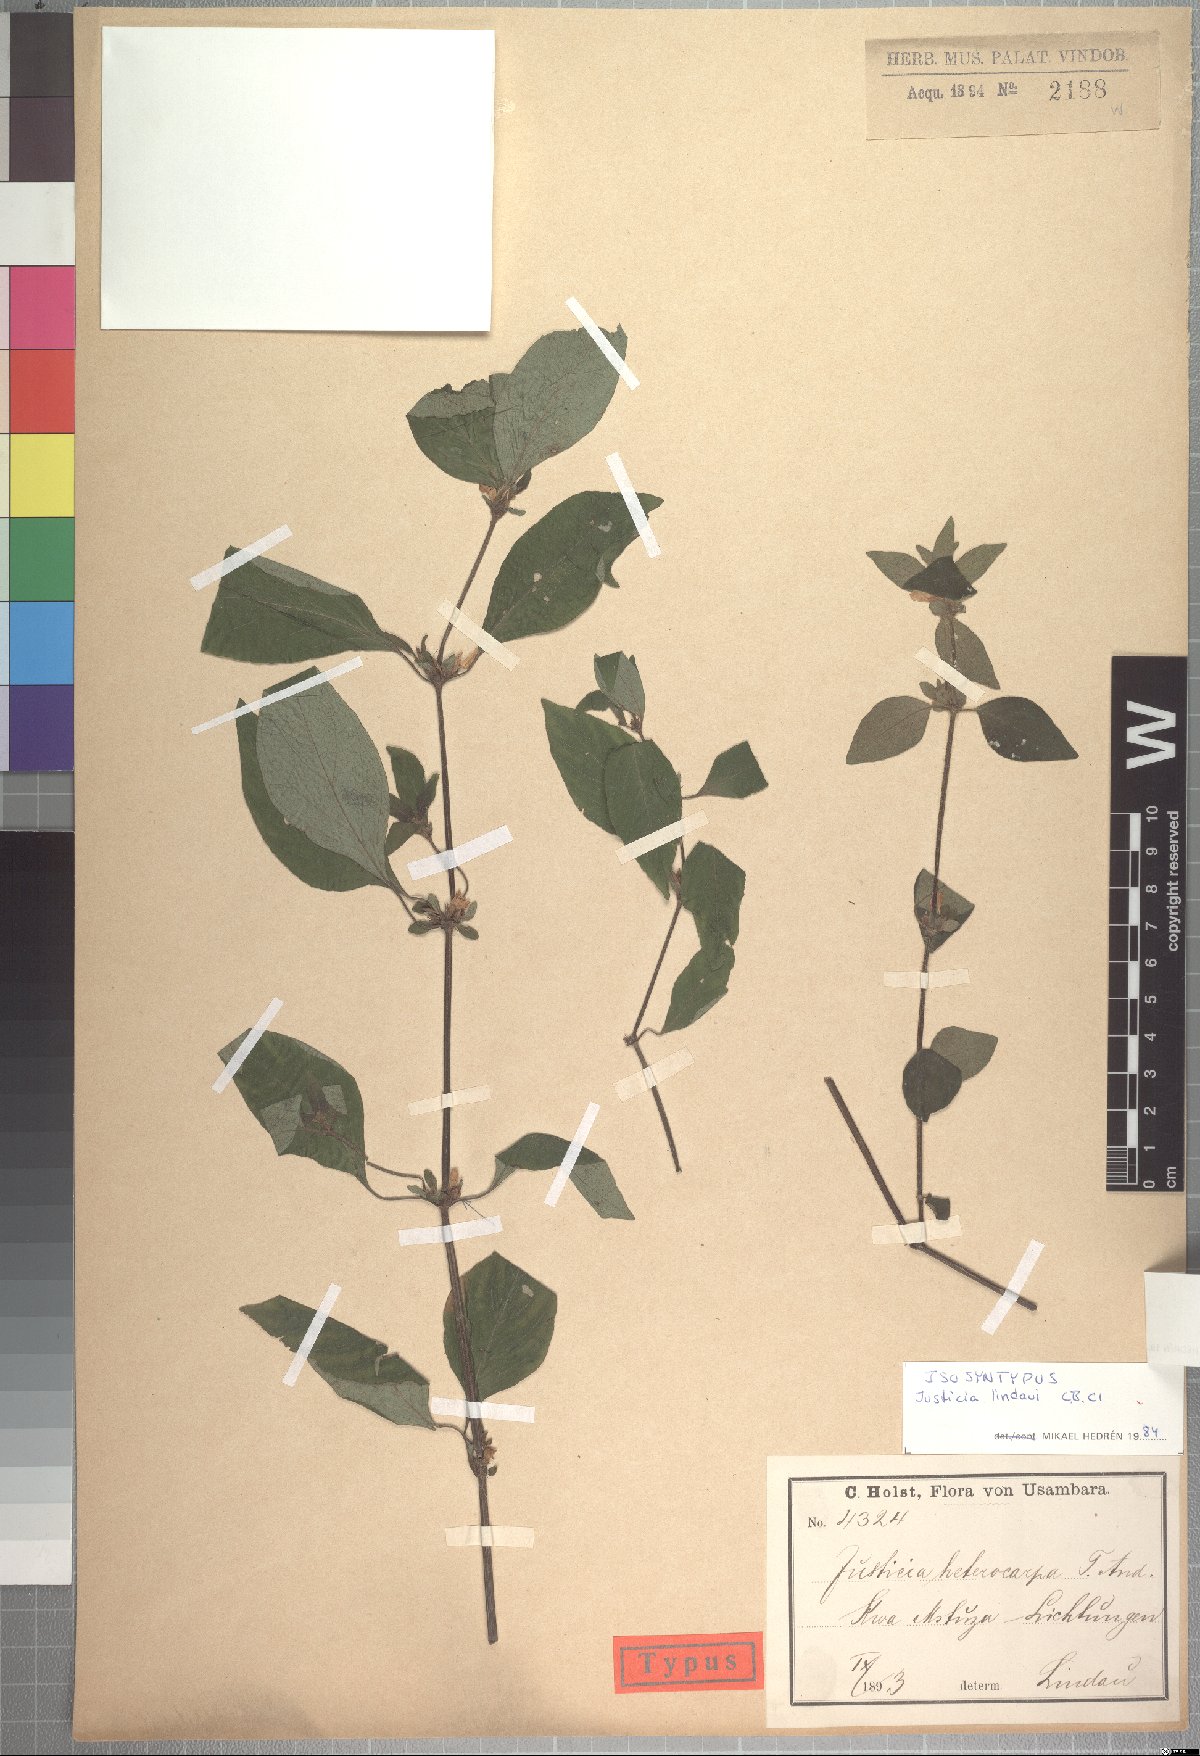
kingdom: Plantae
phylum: Tracheophyta
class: Magnoliopsida
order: Lamiales
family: Acanthaceae
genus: Justicia
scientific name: Justicia striata
